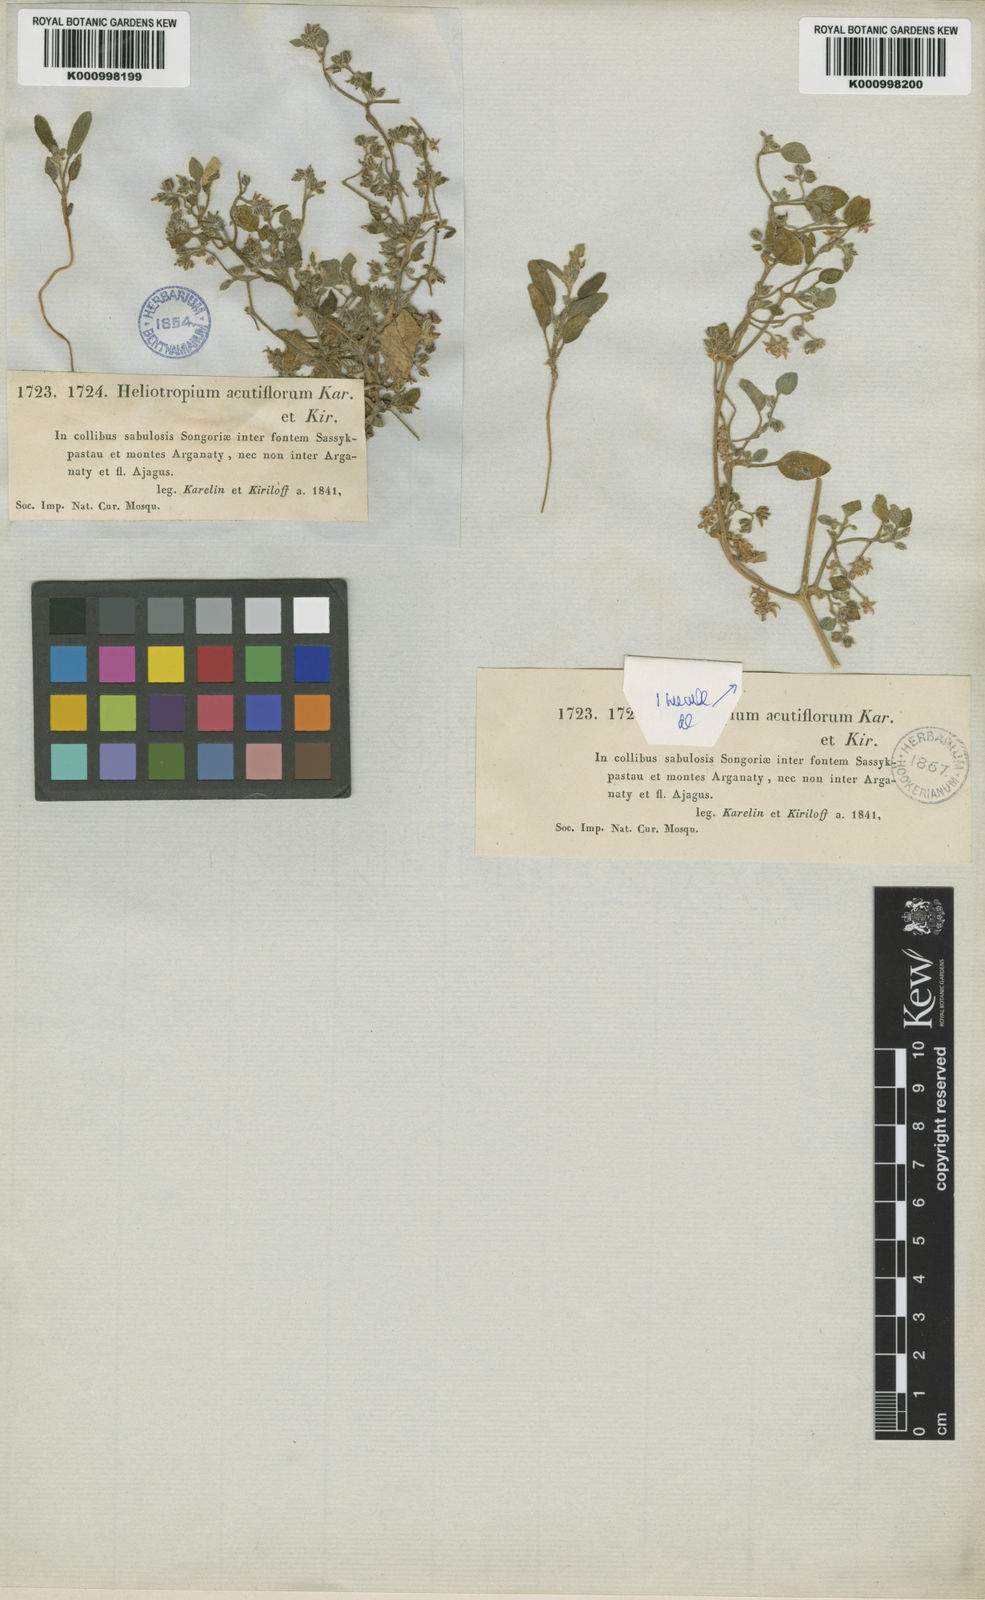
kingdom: Plantae
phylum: Tracheophyta
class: Magnoliopsida
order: Boraginales
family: Heliotropiaceae
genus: Heliotropium
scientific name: Heliotropium acutiflorum
